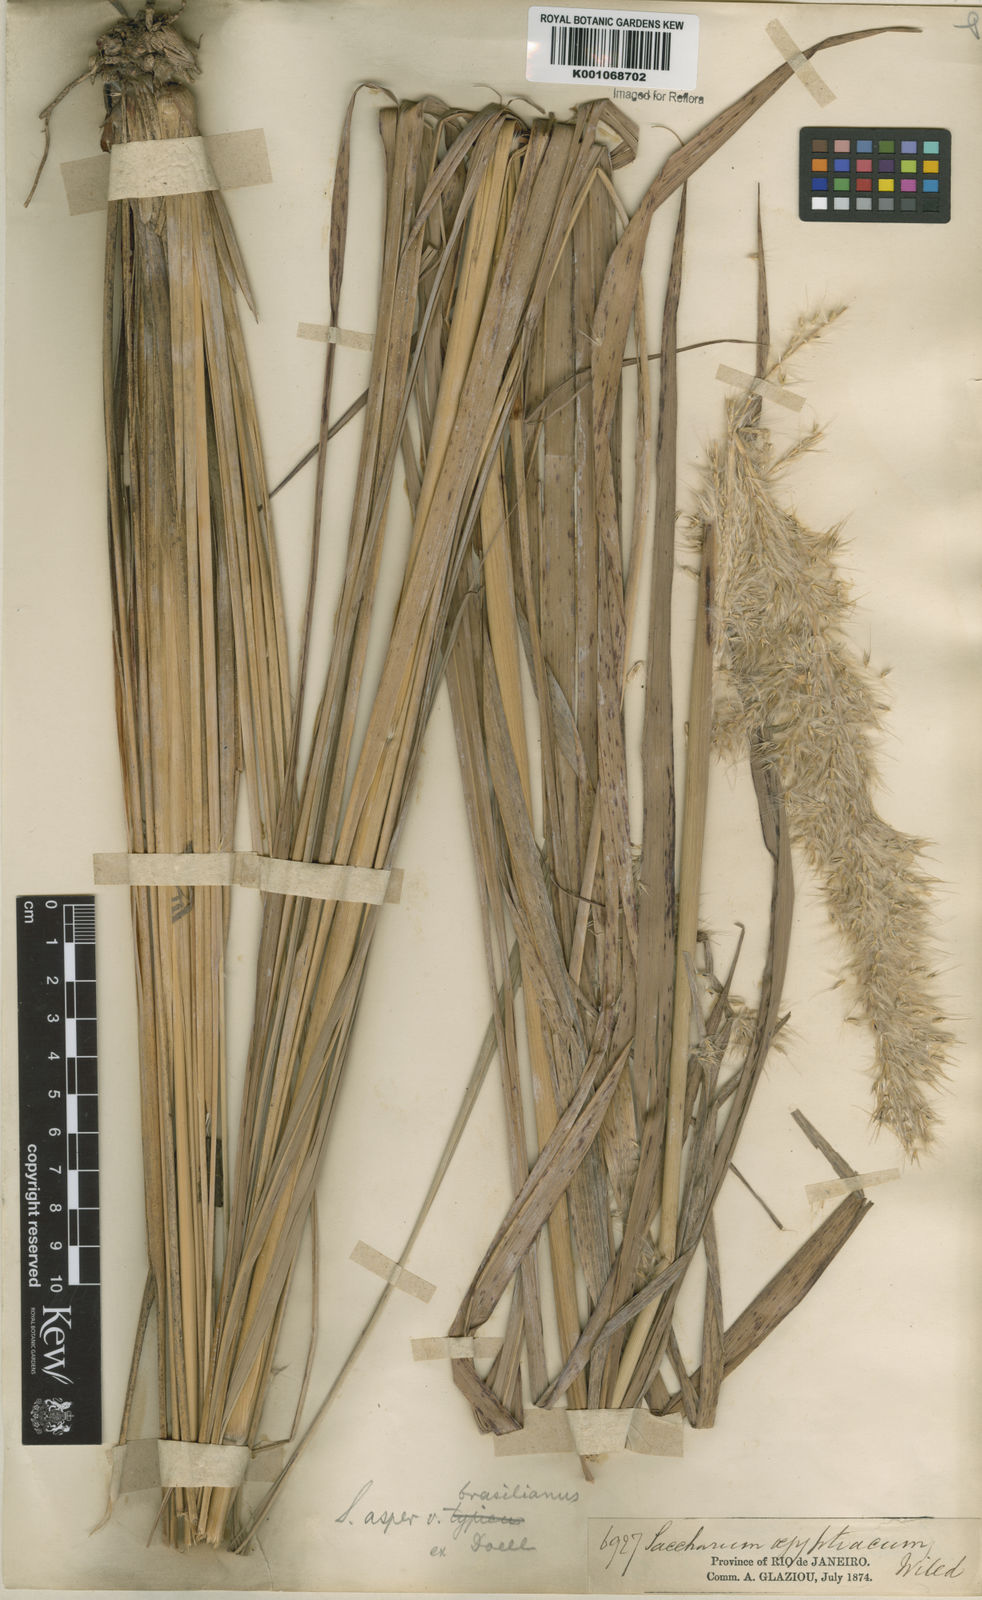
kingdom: Plantae
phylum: Tracheophyta
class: Liliopsida
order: Poales
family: Poaceae
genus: Erianthus
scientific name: Erianthus asper
